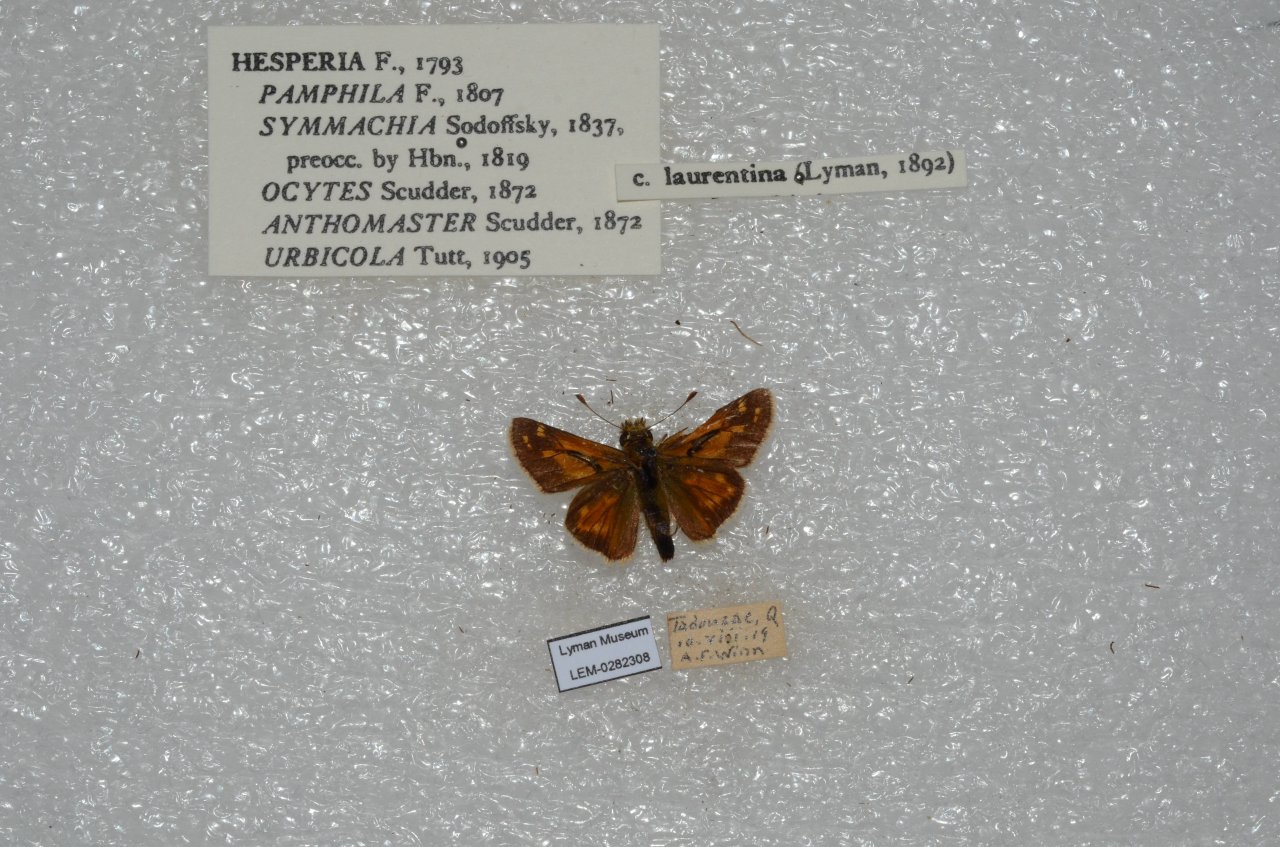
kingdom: Animalia
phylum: Arthropoda
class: Insecta
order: Lepidoptera
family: Hesperiidae
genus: Hesperia
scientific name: Hesperia comma
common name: Common Branded Skipper
